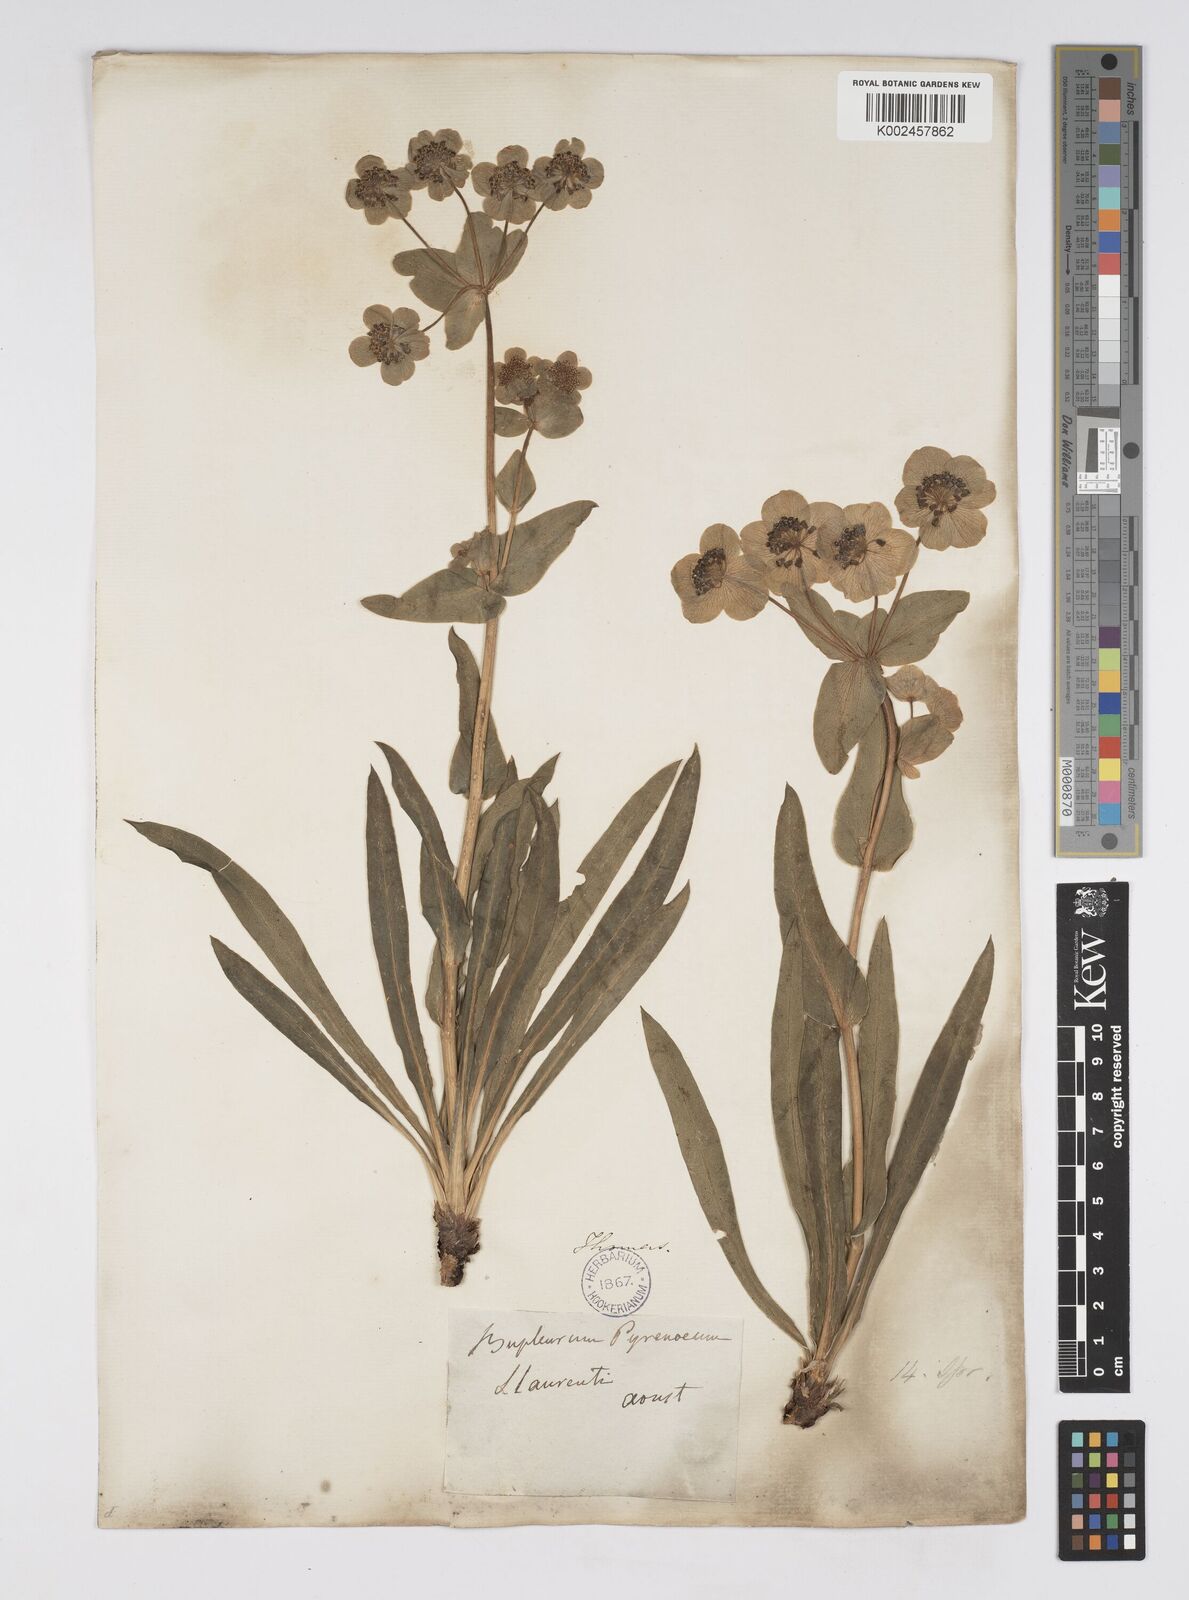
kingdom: Plantae
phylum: Tracheophyta
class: Magnoliopsida
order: Apiales
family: Apiaceae
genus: Bupleurum
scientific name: Bupleurum angulosum
